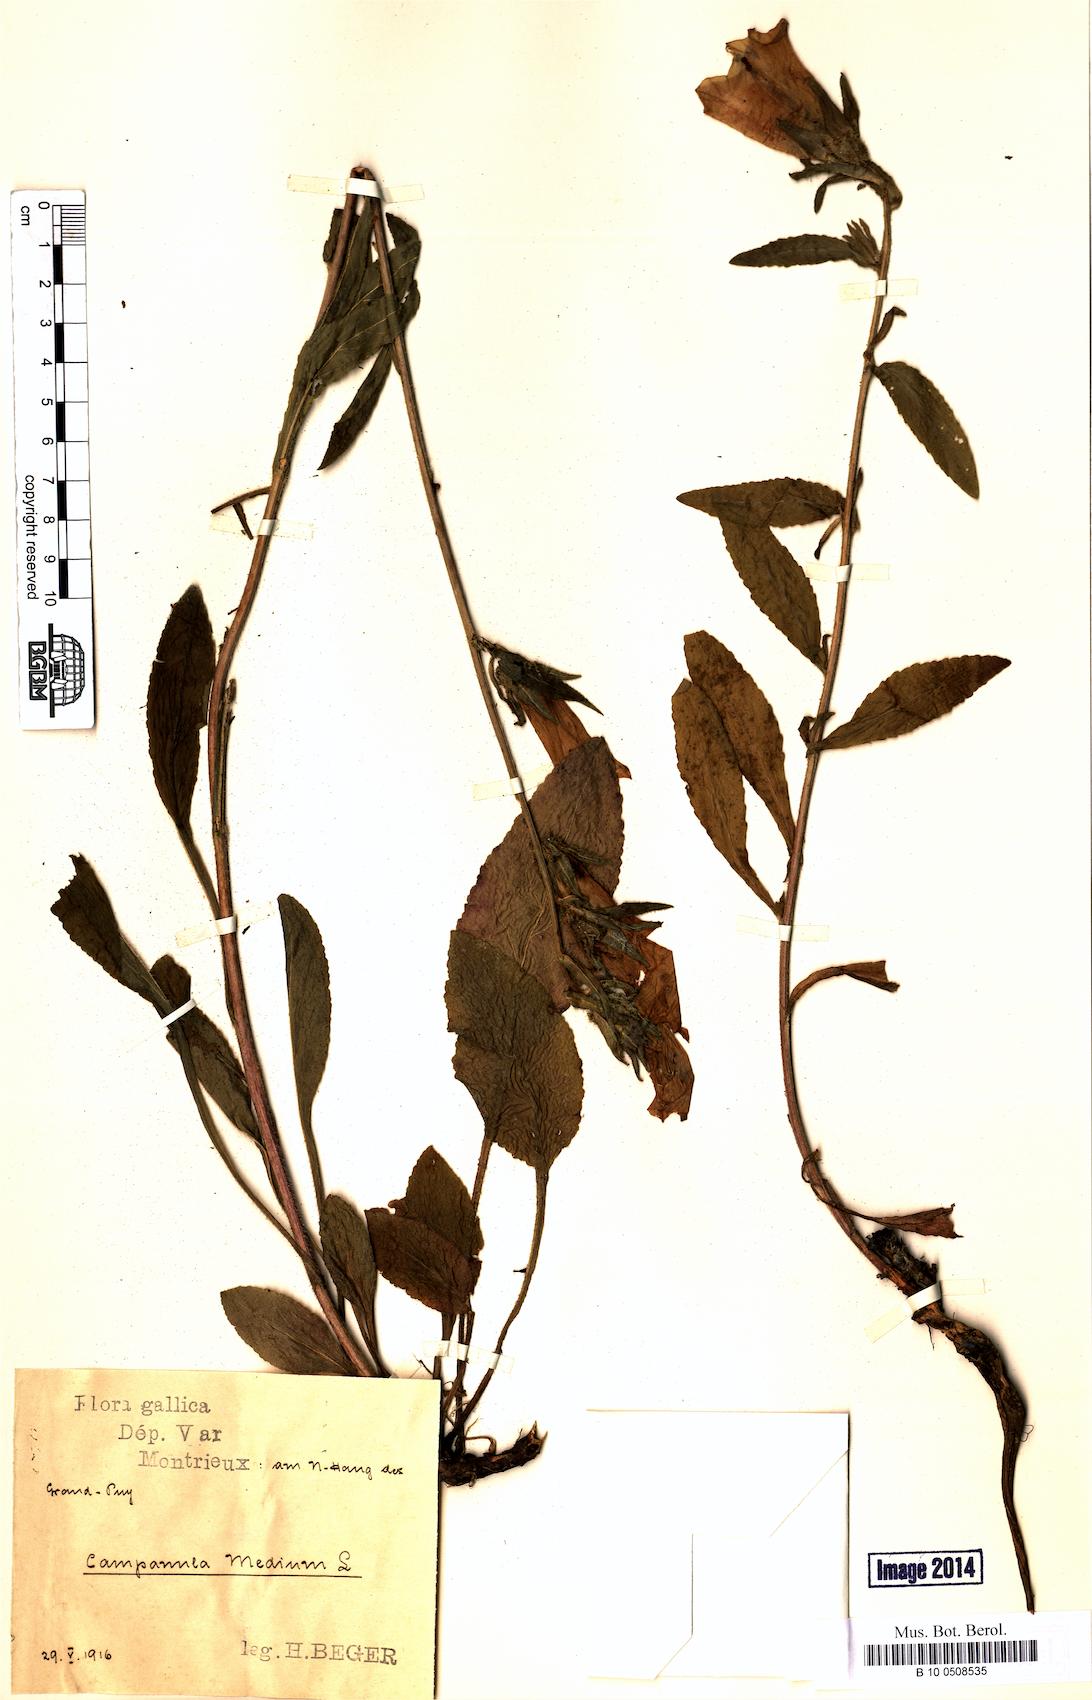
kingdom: Plantae
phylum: Tracheophyta
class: Magnoliopsida
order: Asterales
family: Campanulaceae
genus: Campanula
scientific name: Campanula medium
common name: Canterbury bells
